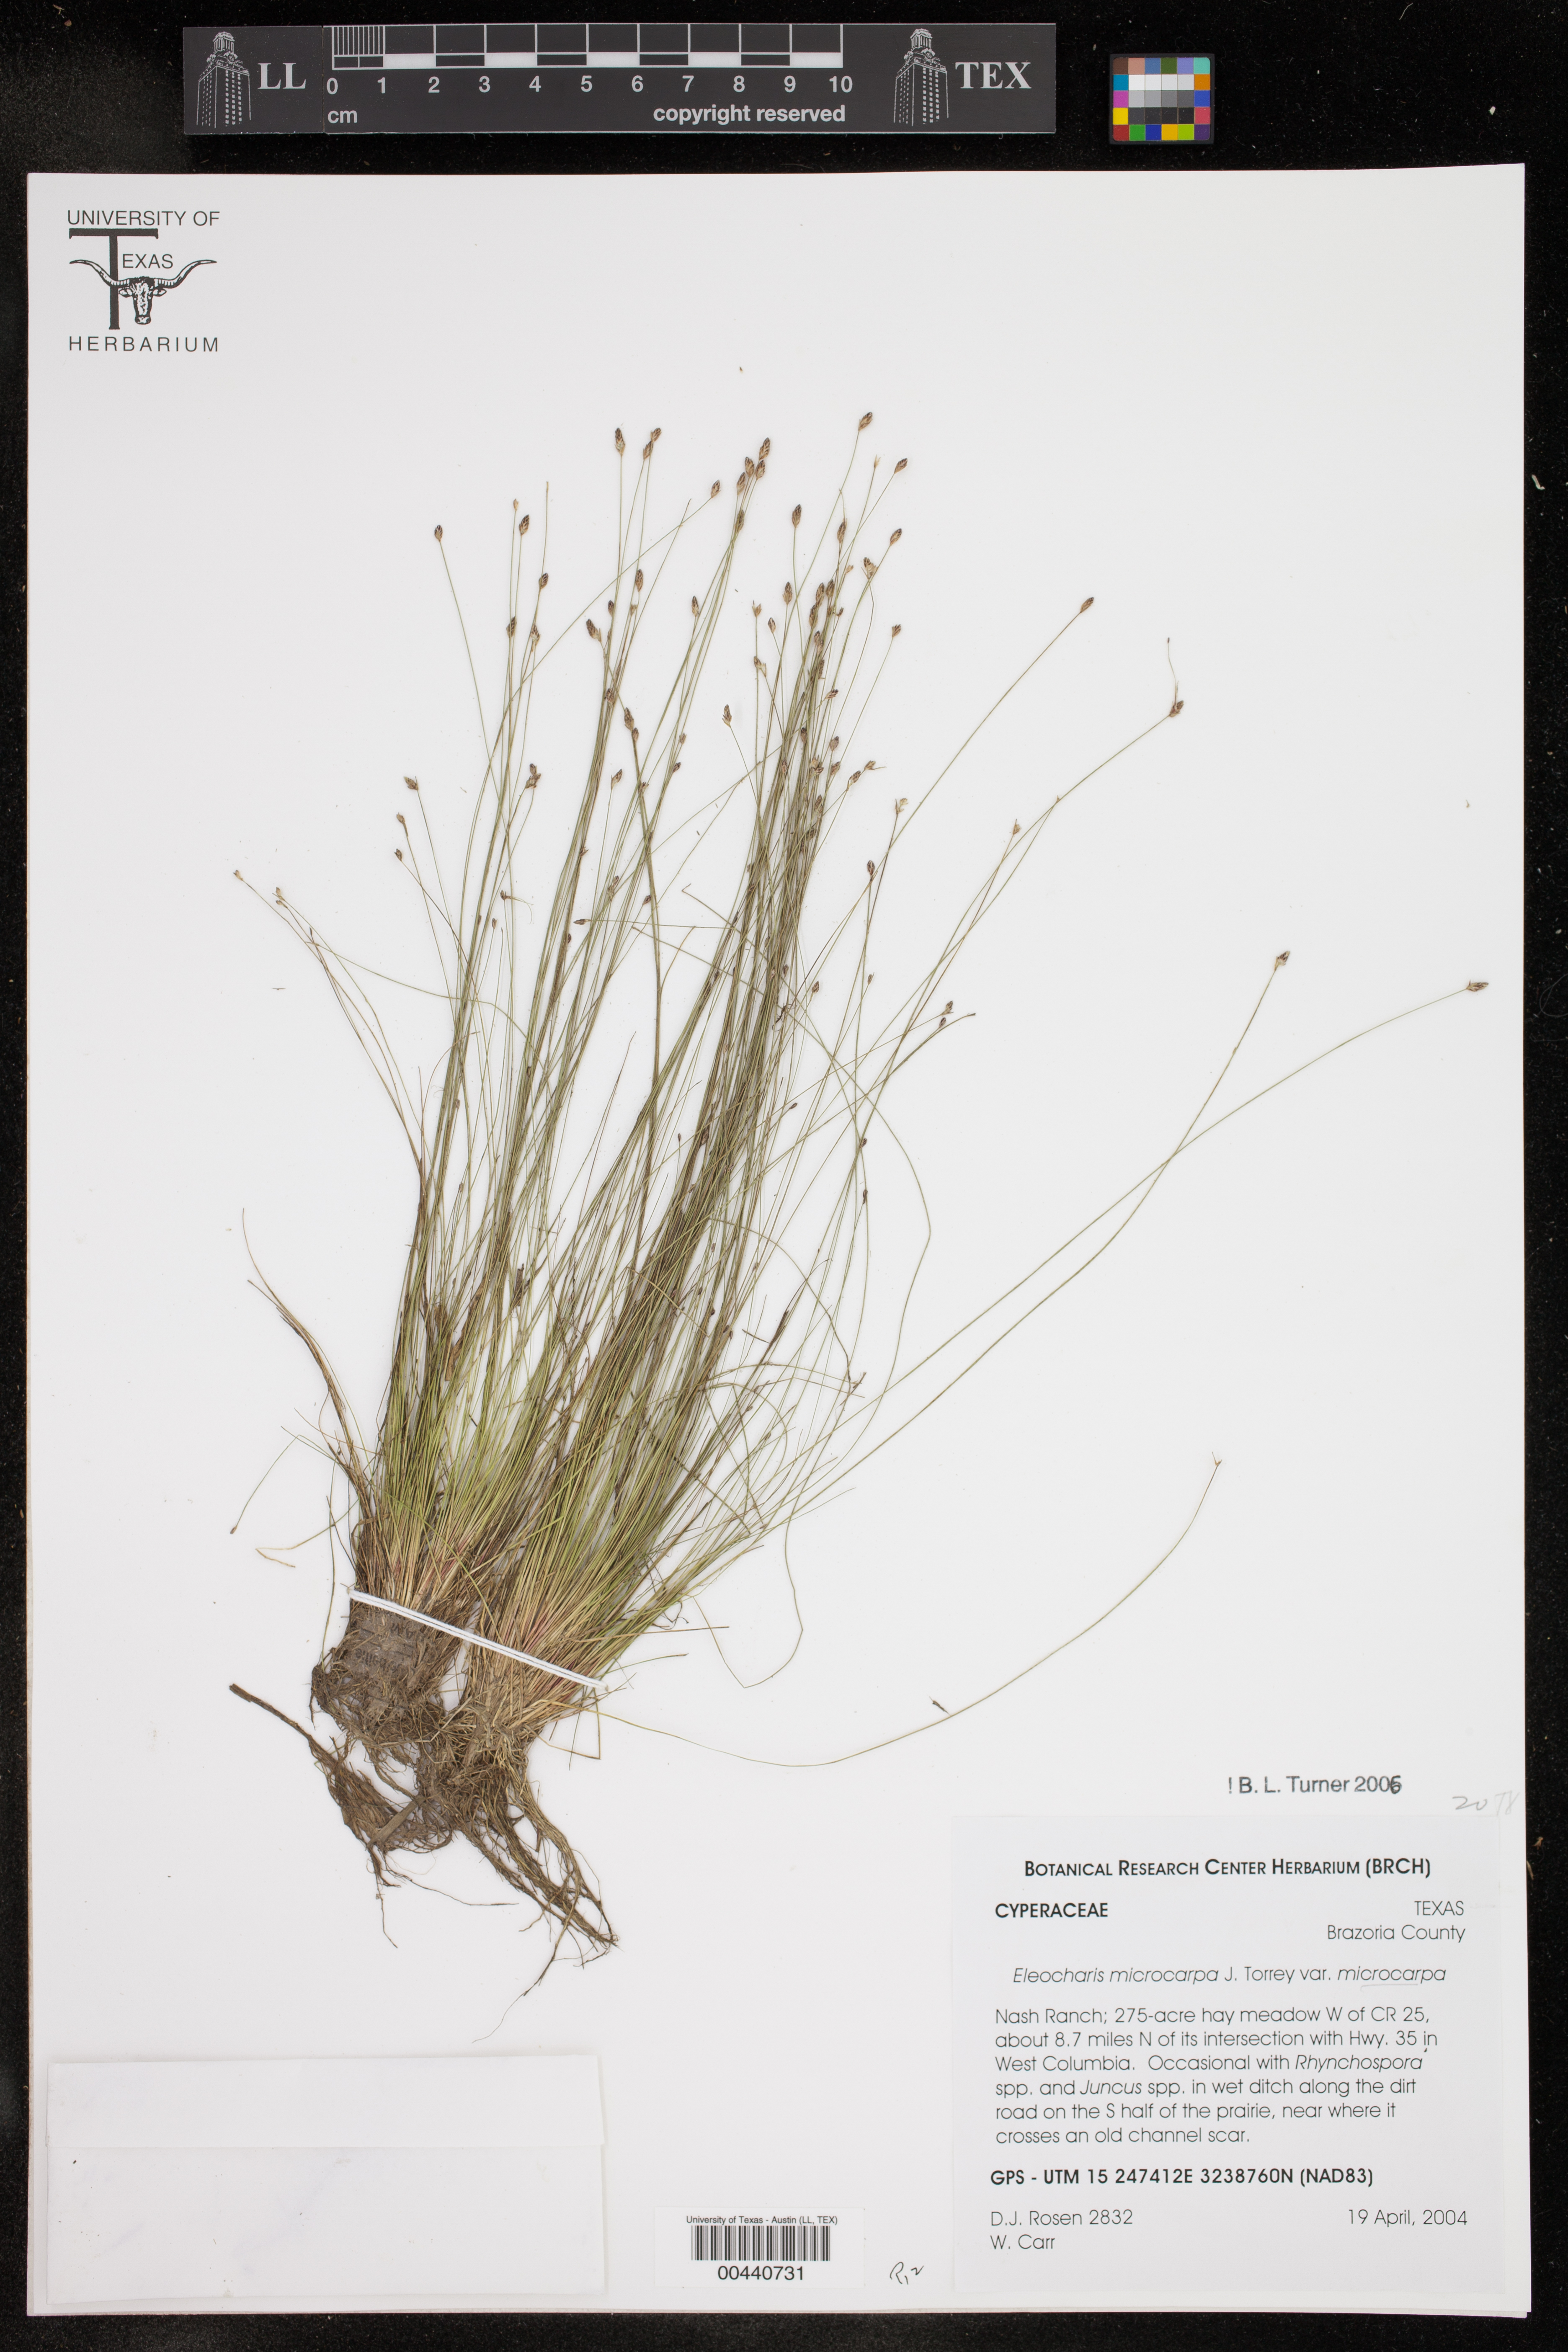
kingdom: Plantae
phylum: Tracheophyta
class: Liliopsida
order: Poales
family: Cyperaceae
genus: Eleocharis
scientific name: Eleocharis microcarpa
